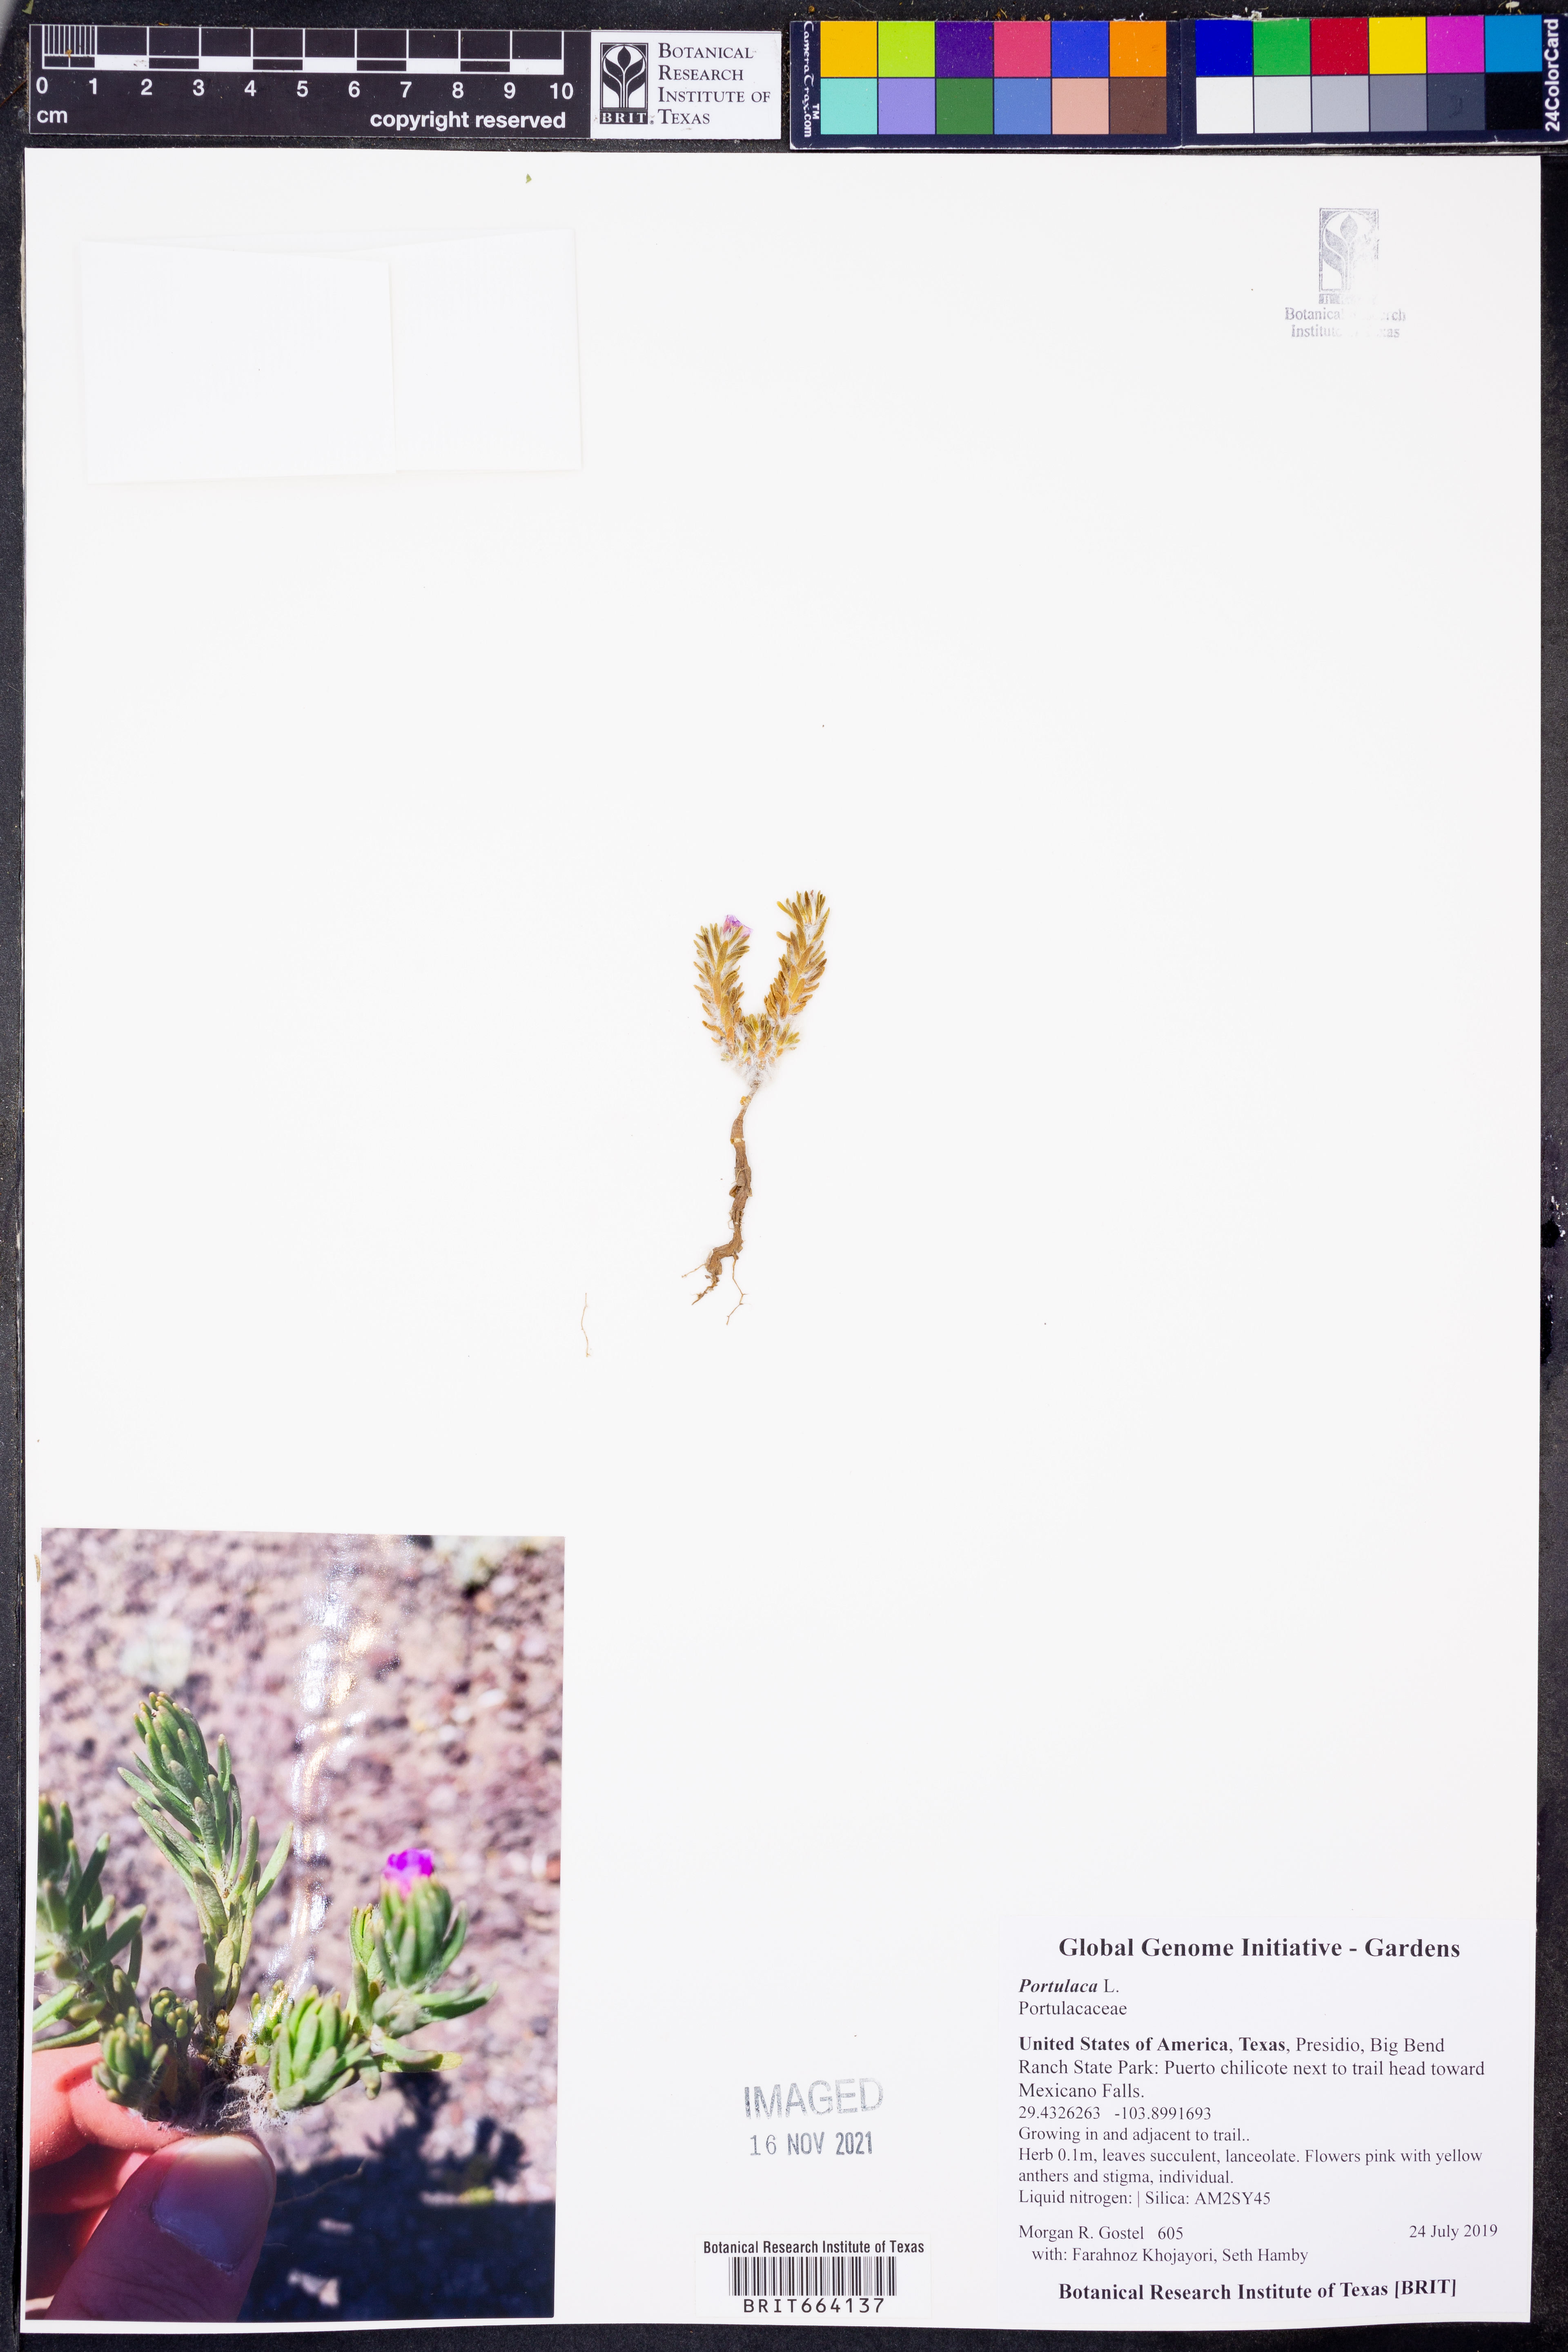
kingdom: Plantae
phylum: Tracheophyta
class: Magnoliopsida
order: Caryophyllales
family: Portulacaceae
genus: Portulaca
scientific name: Portulaca
